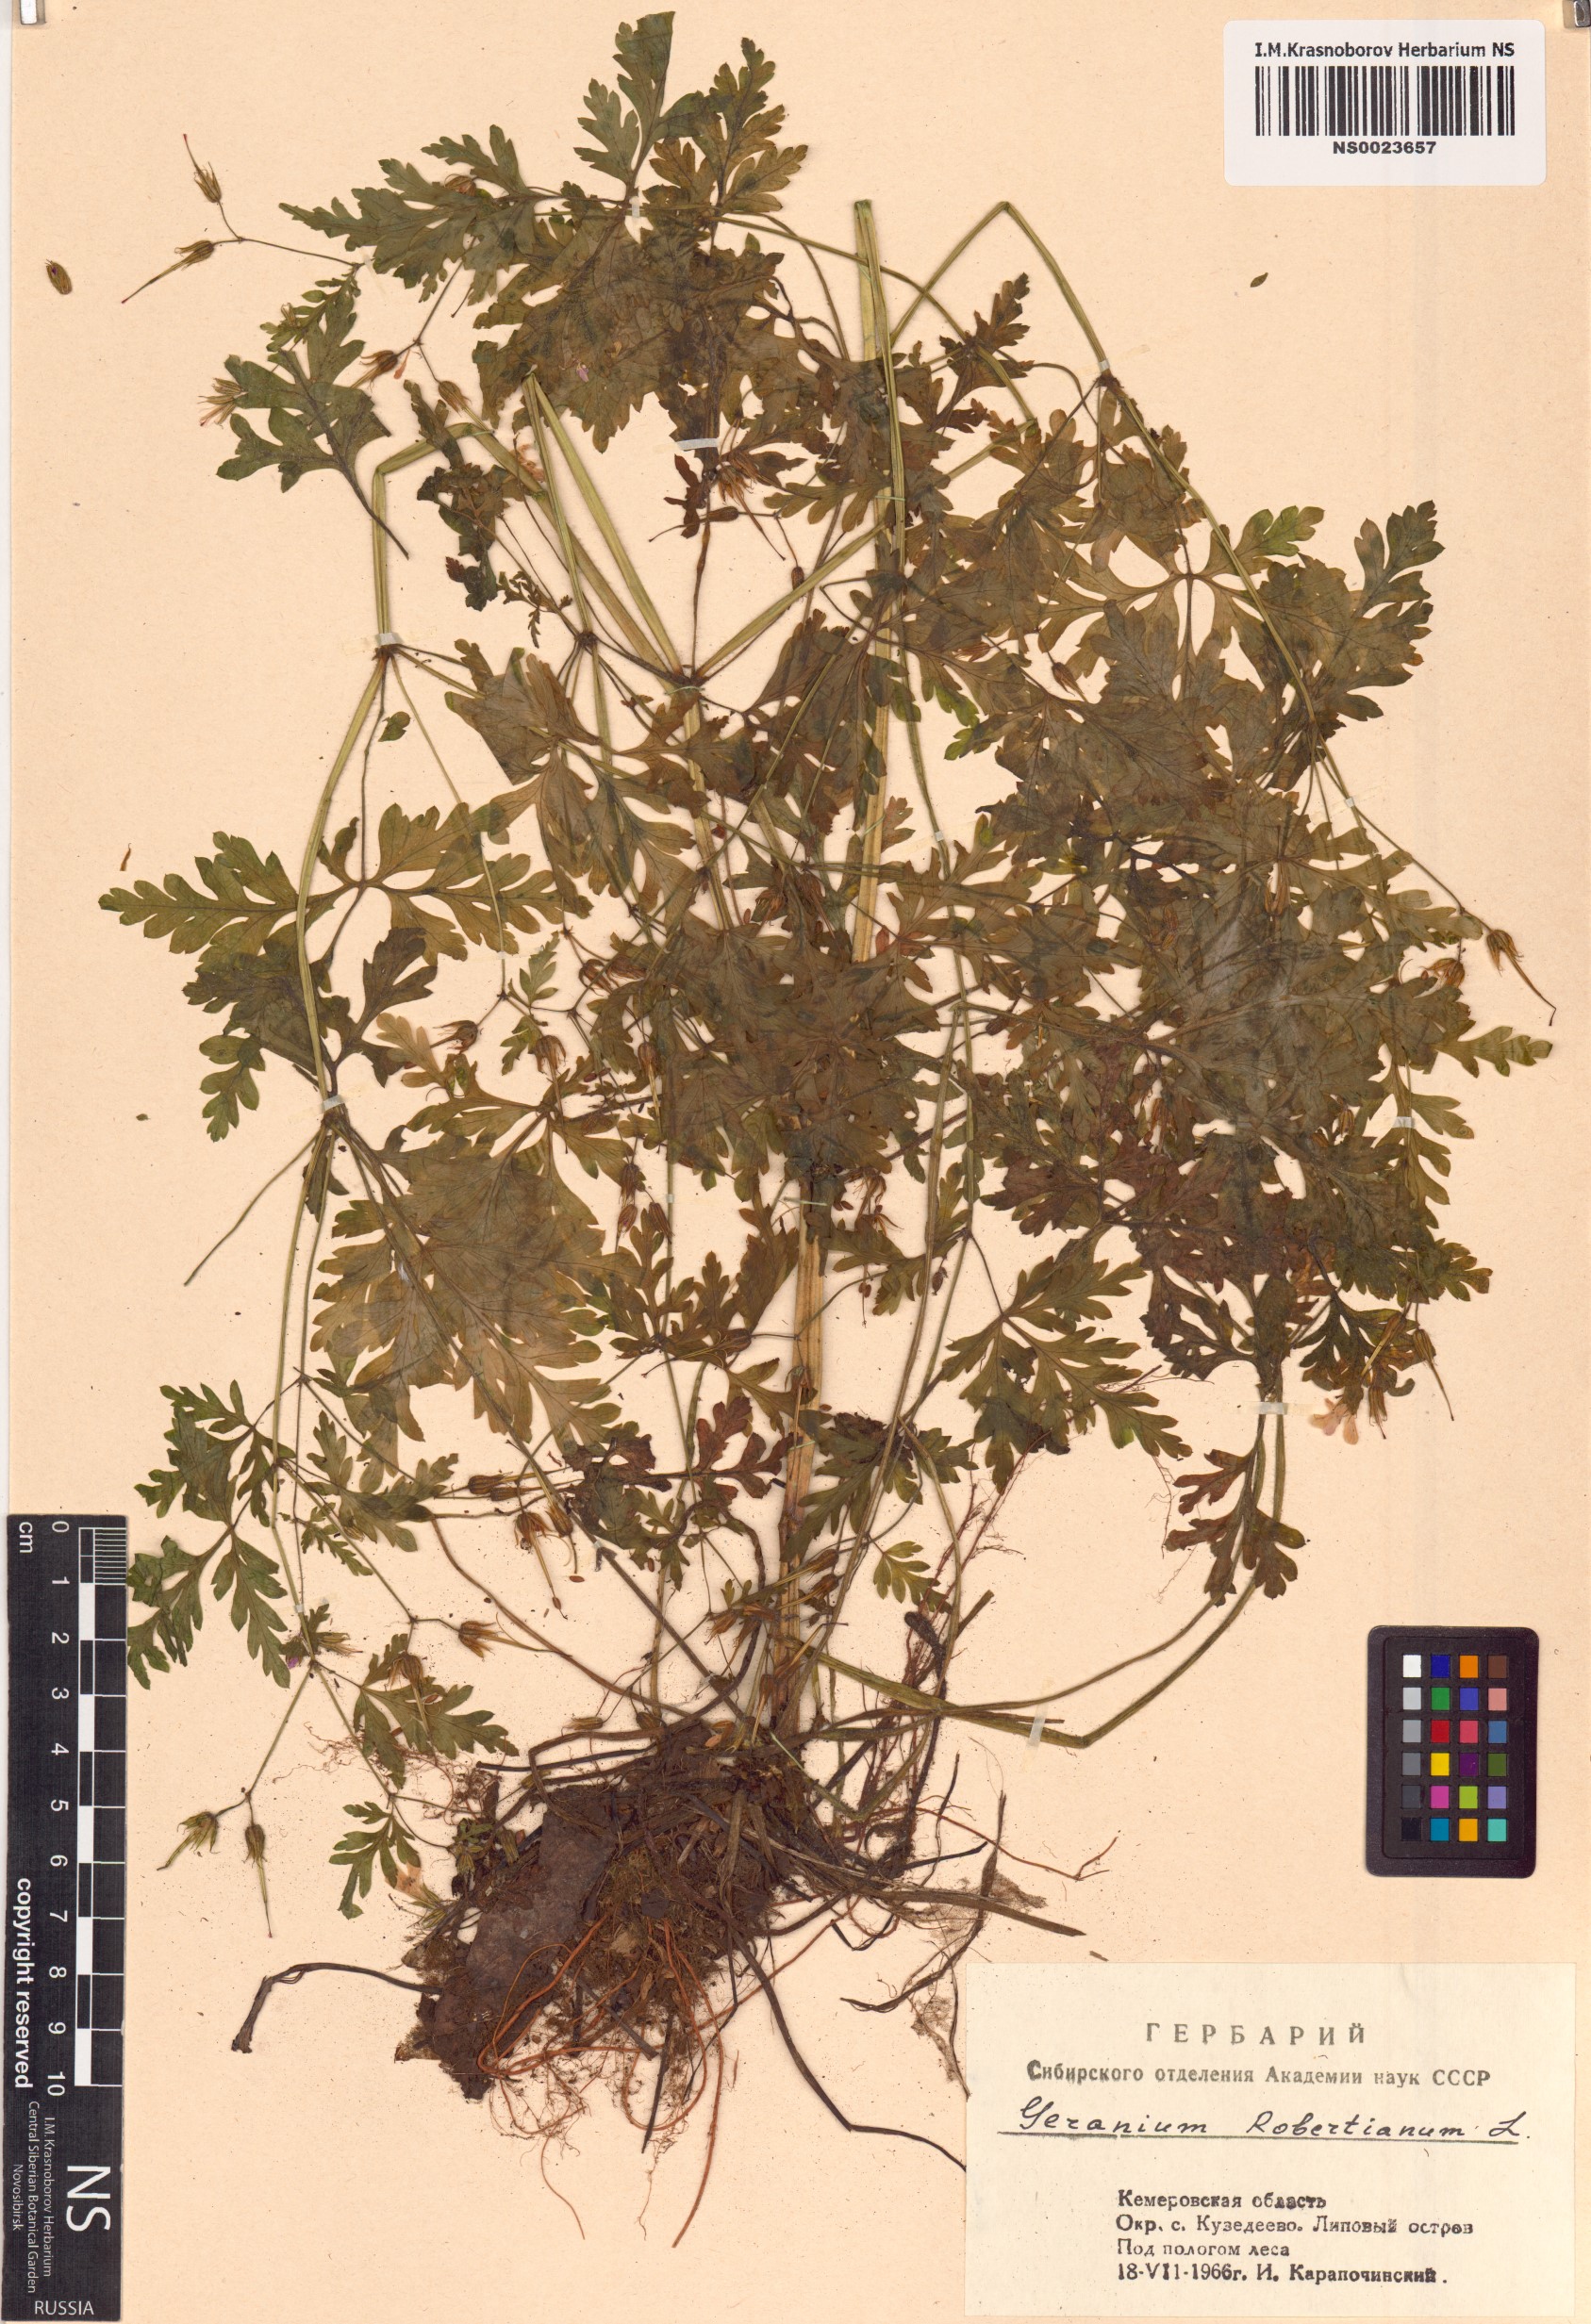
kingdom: Plantae
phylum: Tracheophyta
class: Magnoliopsida
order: Geraniales
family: Geraniaceae
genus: Geranium
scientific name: Geranium robertianum
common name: Herb-robert
